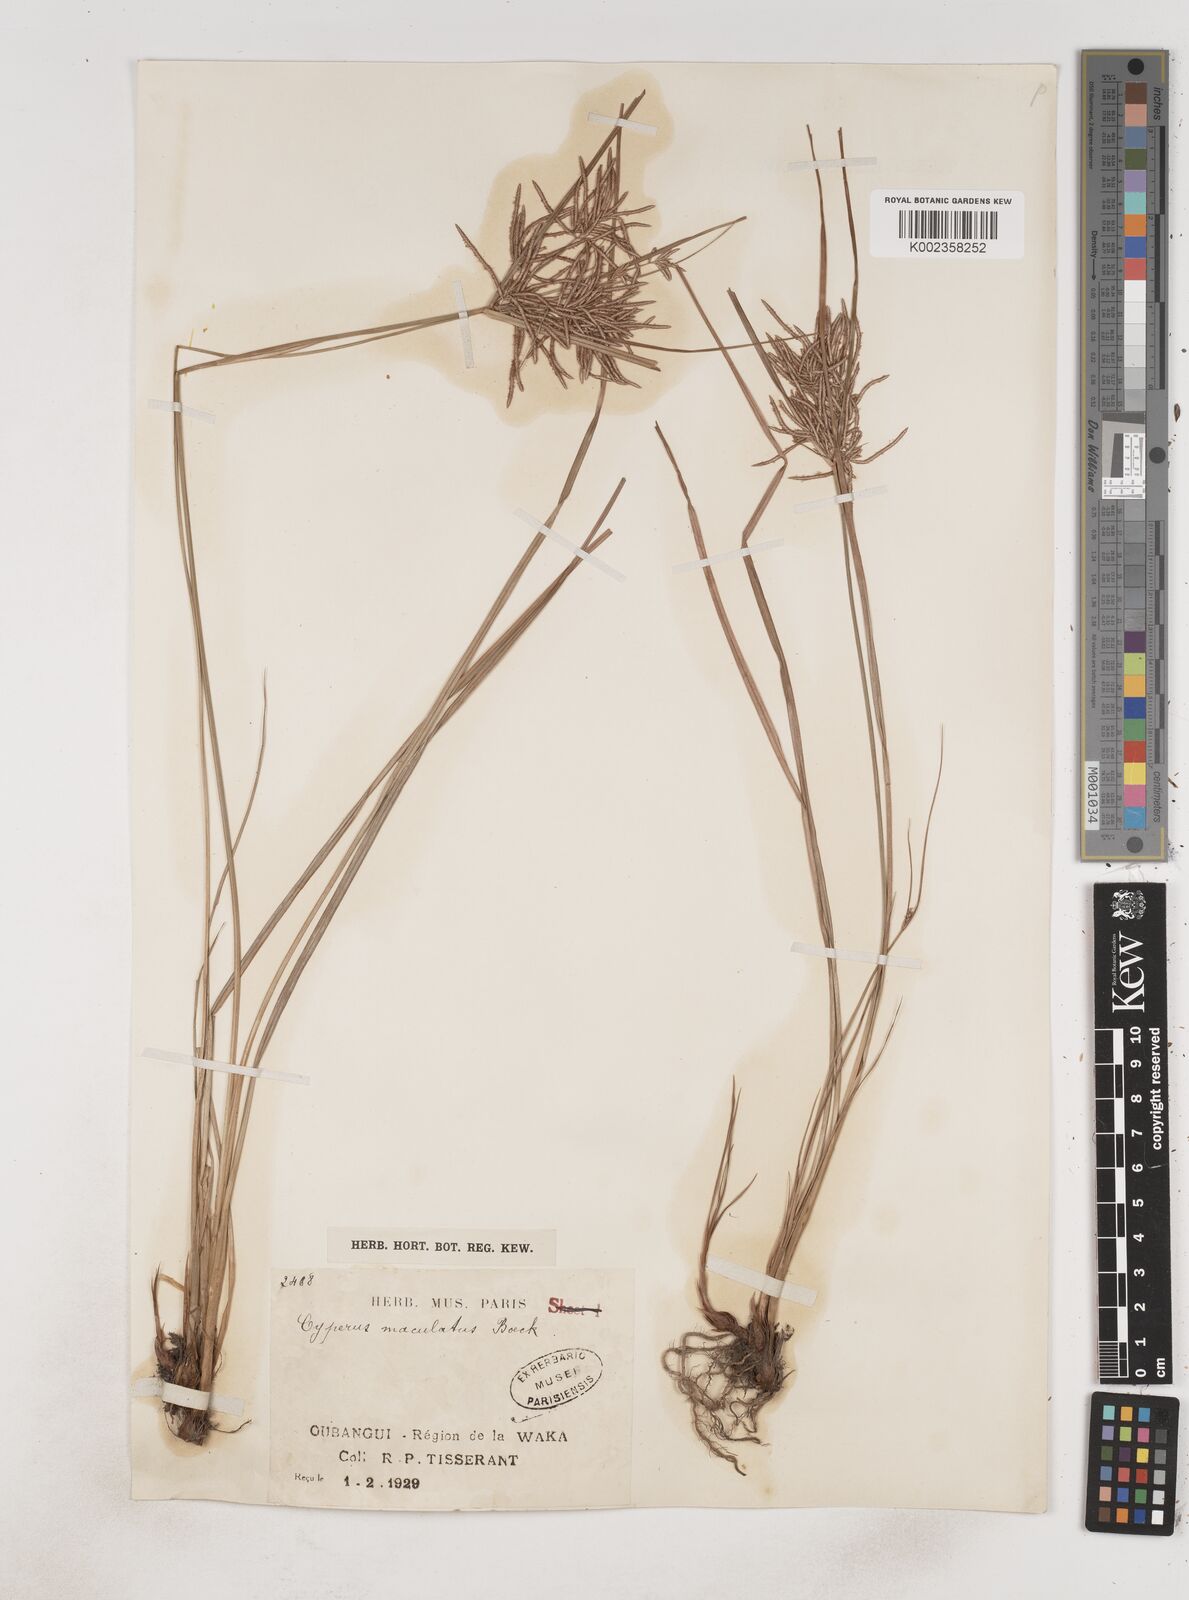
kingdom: Plantae
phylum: Tracheophyta
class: Liliopsida
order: Poales
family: Cyperaceae
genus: Cyperus
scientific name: Cyperus maculatus
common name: Maculated sedge
